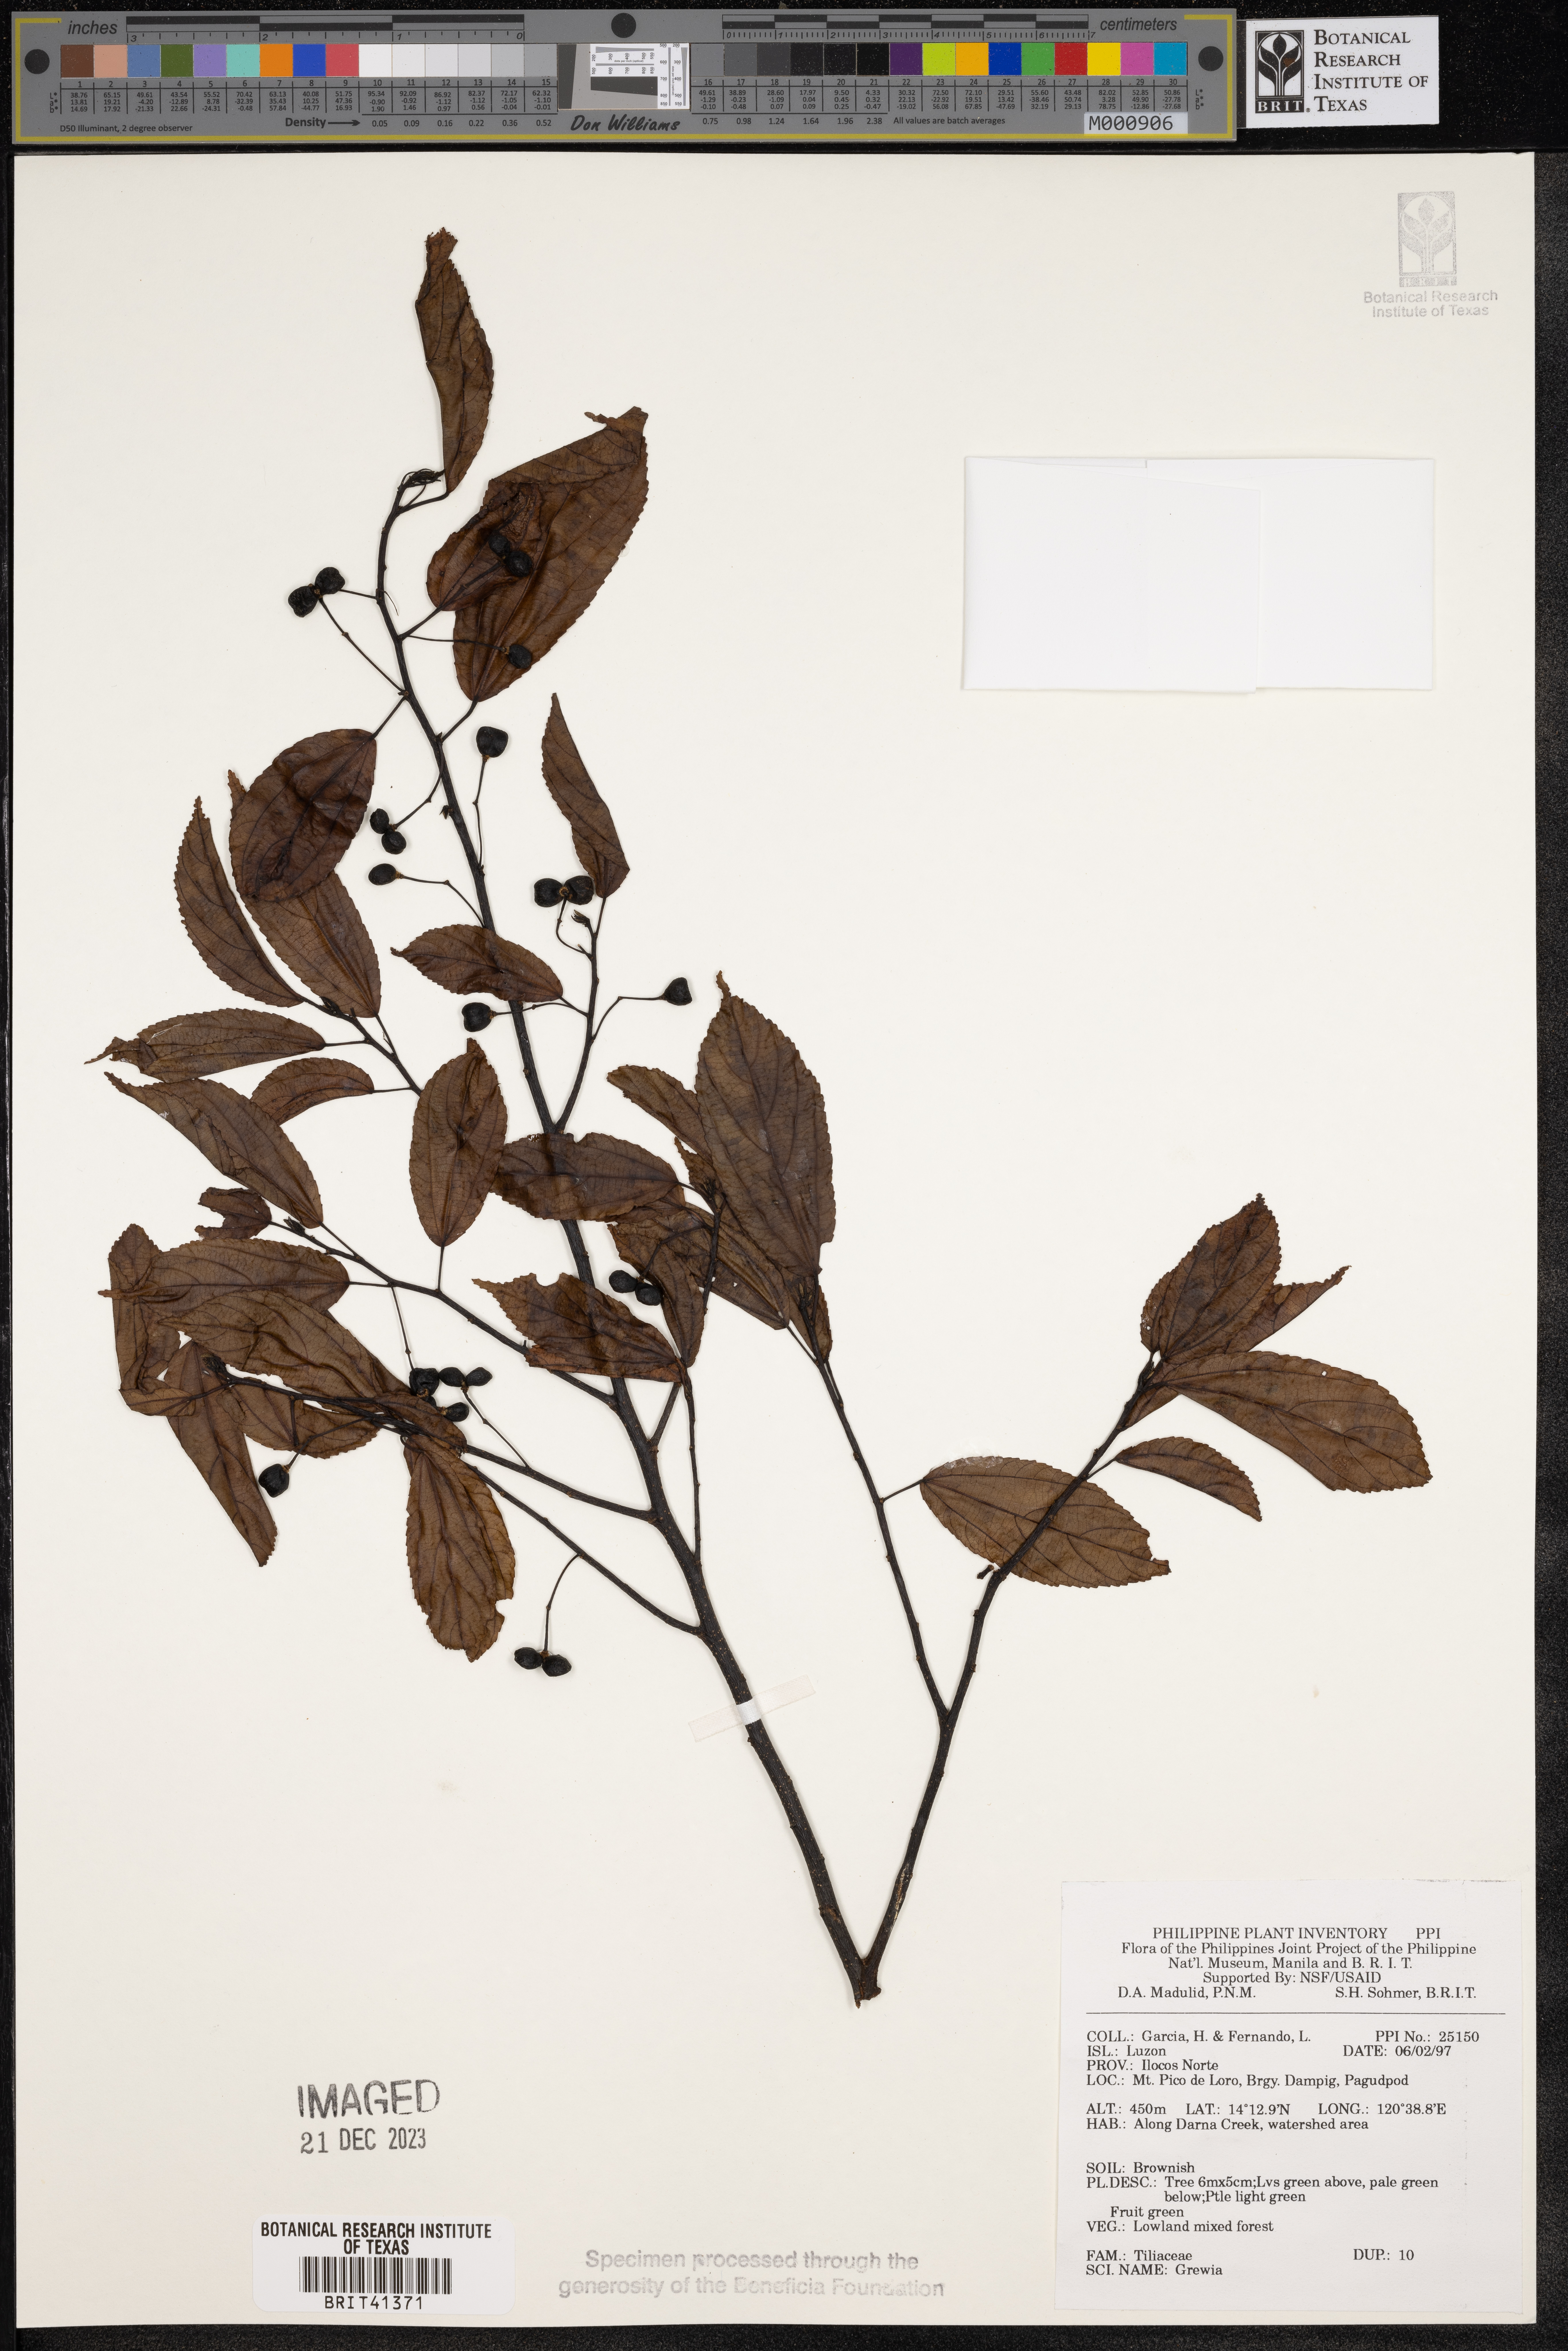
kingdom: Plantae
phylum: Tracheophyta
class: Magnoliopsida
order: Malvales
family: Malvaceae
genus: Grewia
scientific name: Grewia
